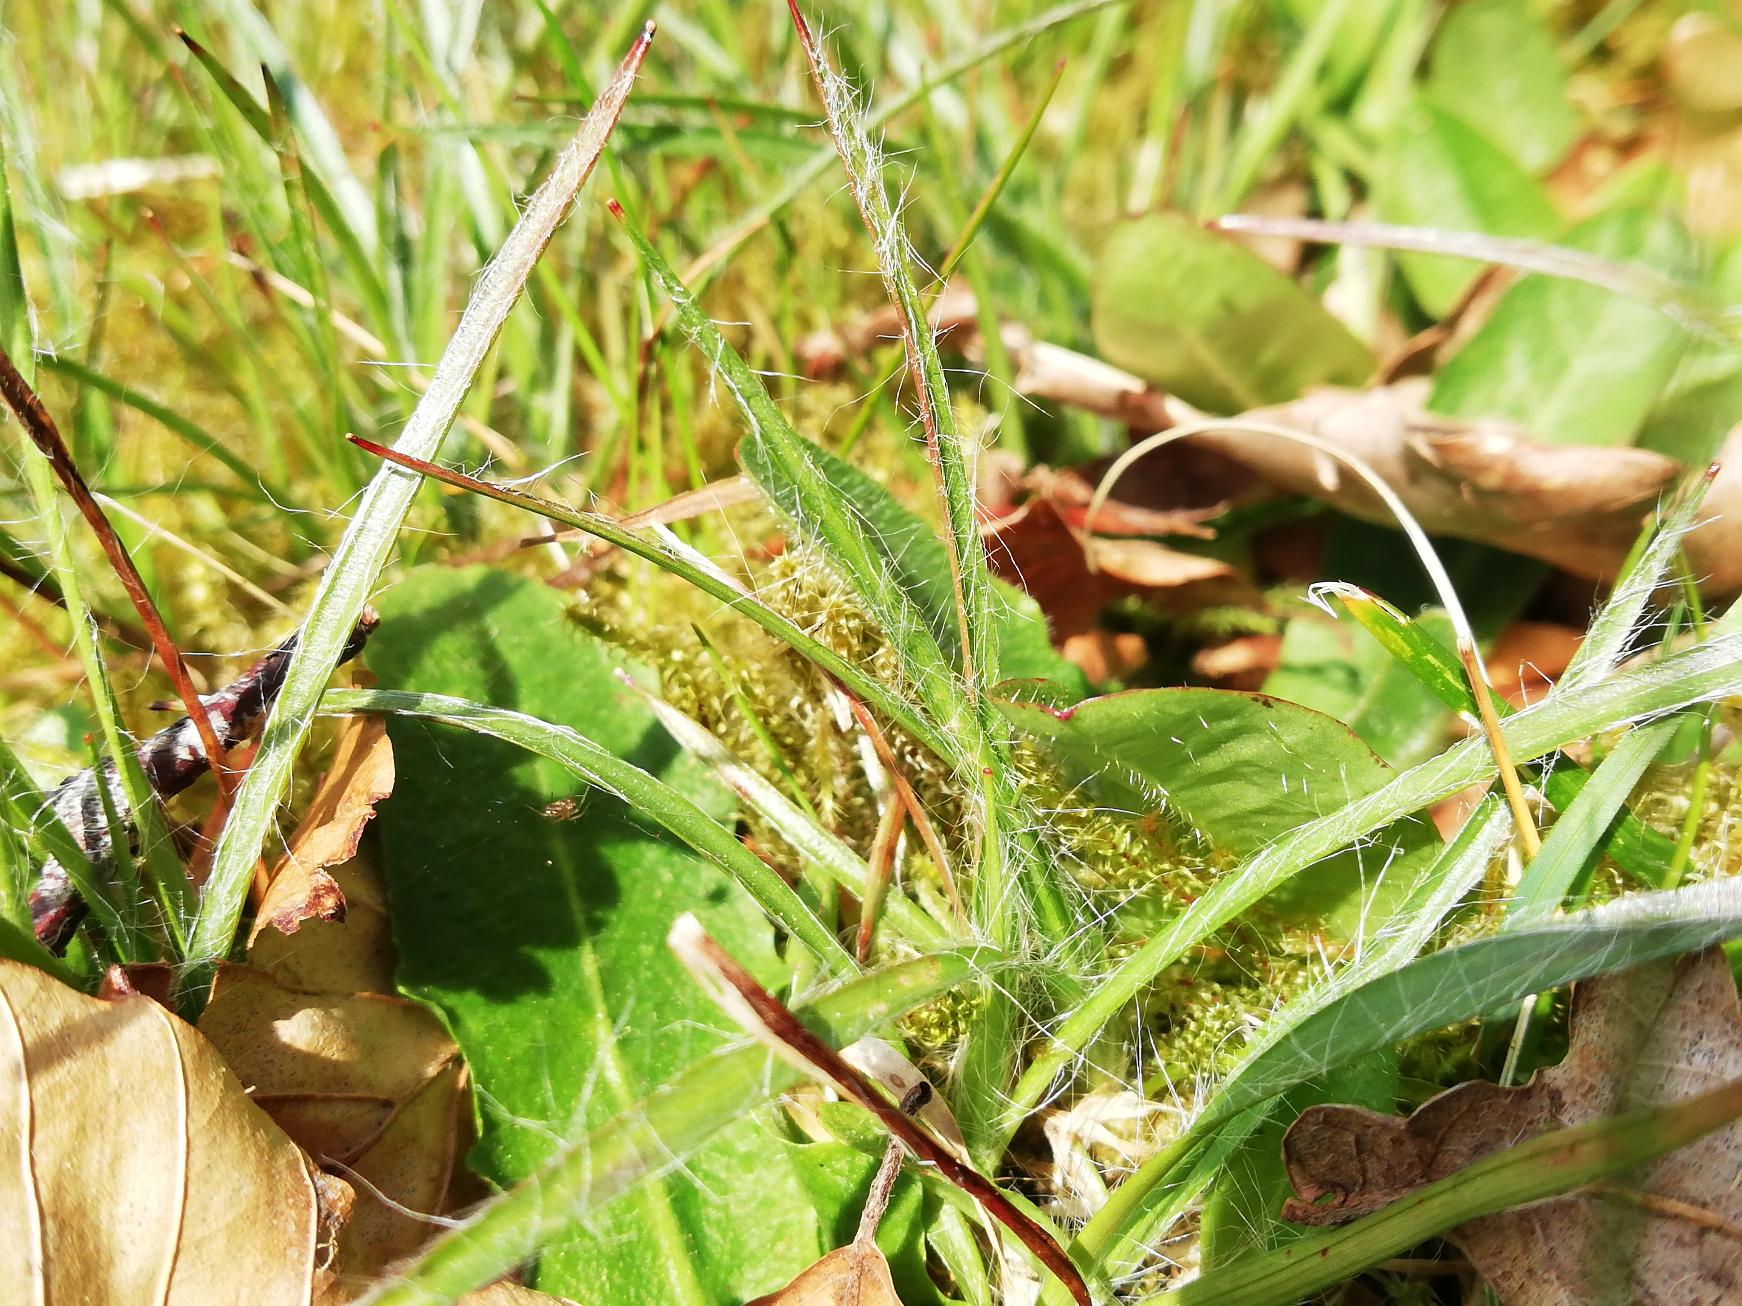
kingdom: Plantae
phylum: Tracheophyta
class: Liliopsida
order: Poales
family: Juncaceae
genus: Luzula
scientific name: Luzula campestris
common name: Mark-frytle
